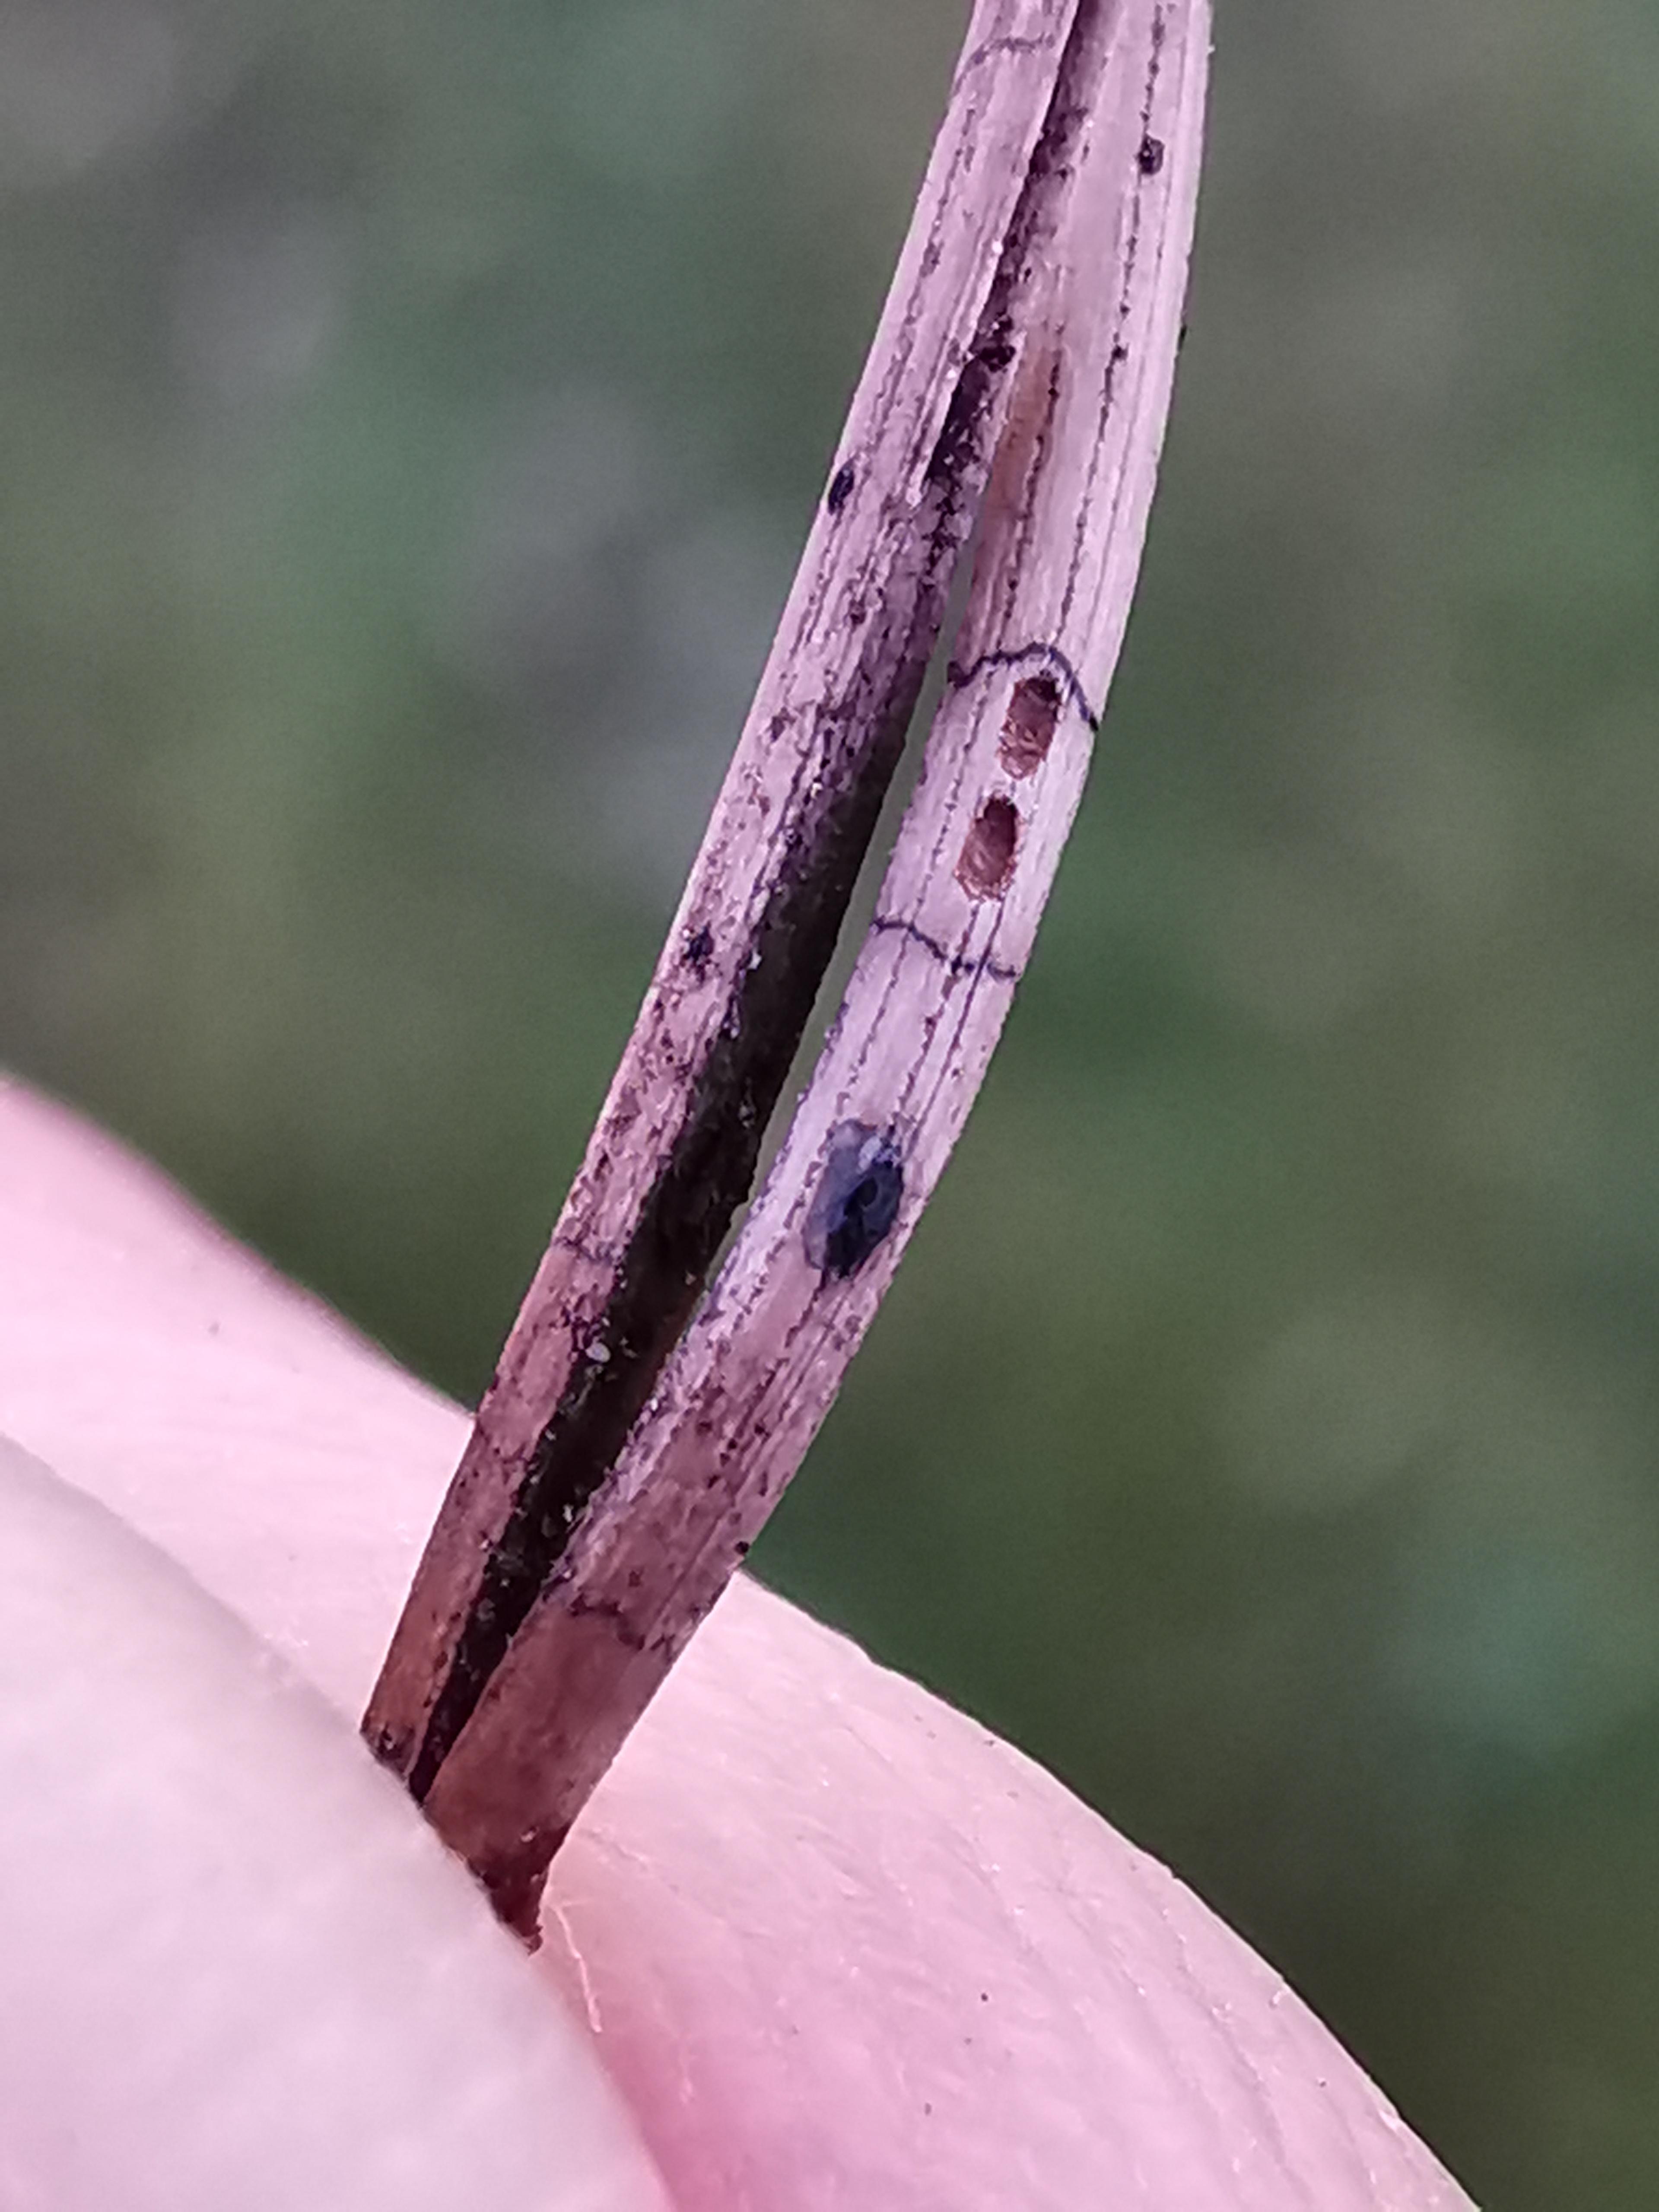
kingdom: Fungi
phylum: Ascomycota
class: Leotiomycetes
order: Rhytismatales
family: Rhytismataceae
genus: Lophodermium
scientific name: Lophodermium pinastri
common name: fyrre-fureplet
